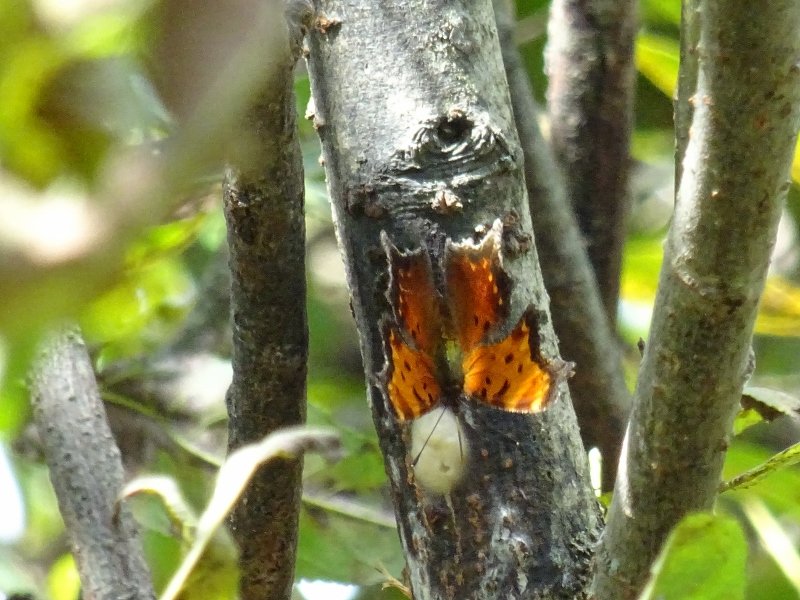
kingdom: Animalia
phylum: Arthropoda
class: Insecta
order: Lepidoptera
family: Nymphalidae
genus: Polygonia
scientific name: Polygonia progne
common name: Gray Comma
